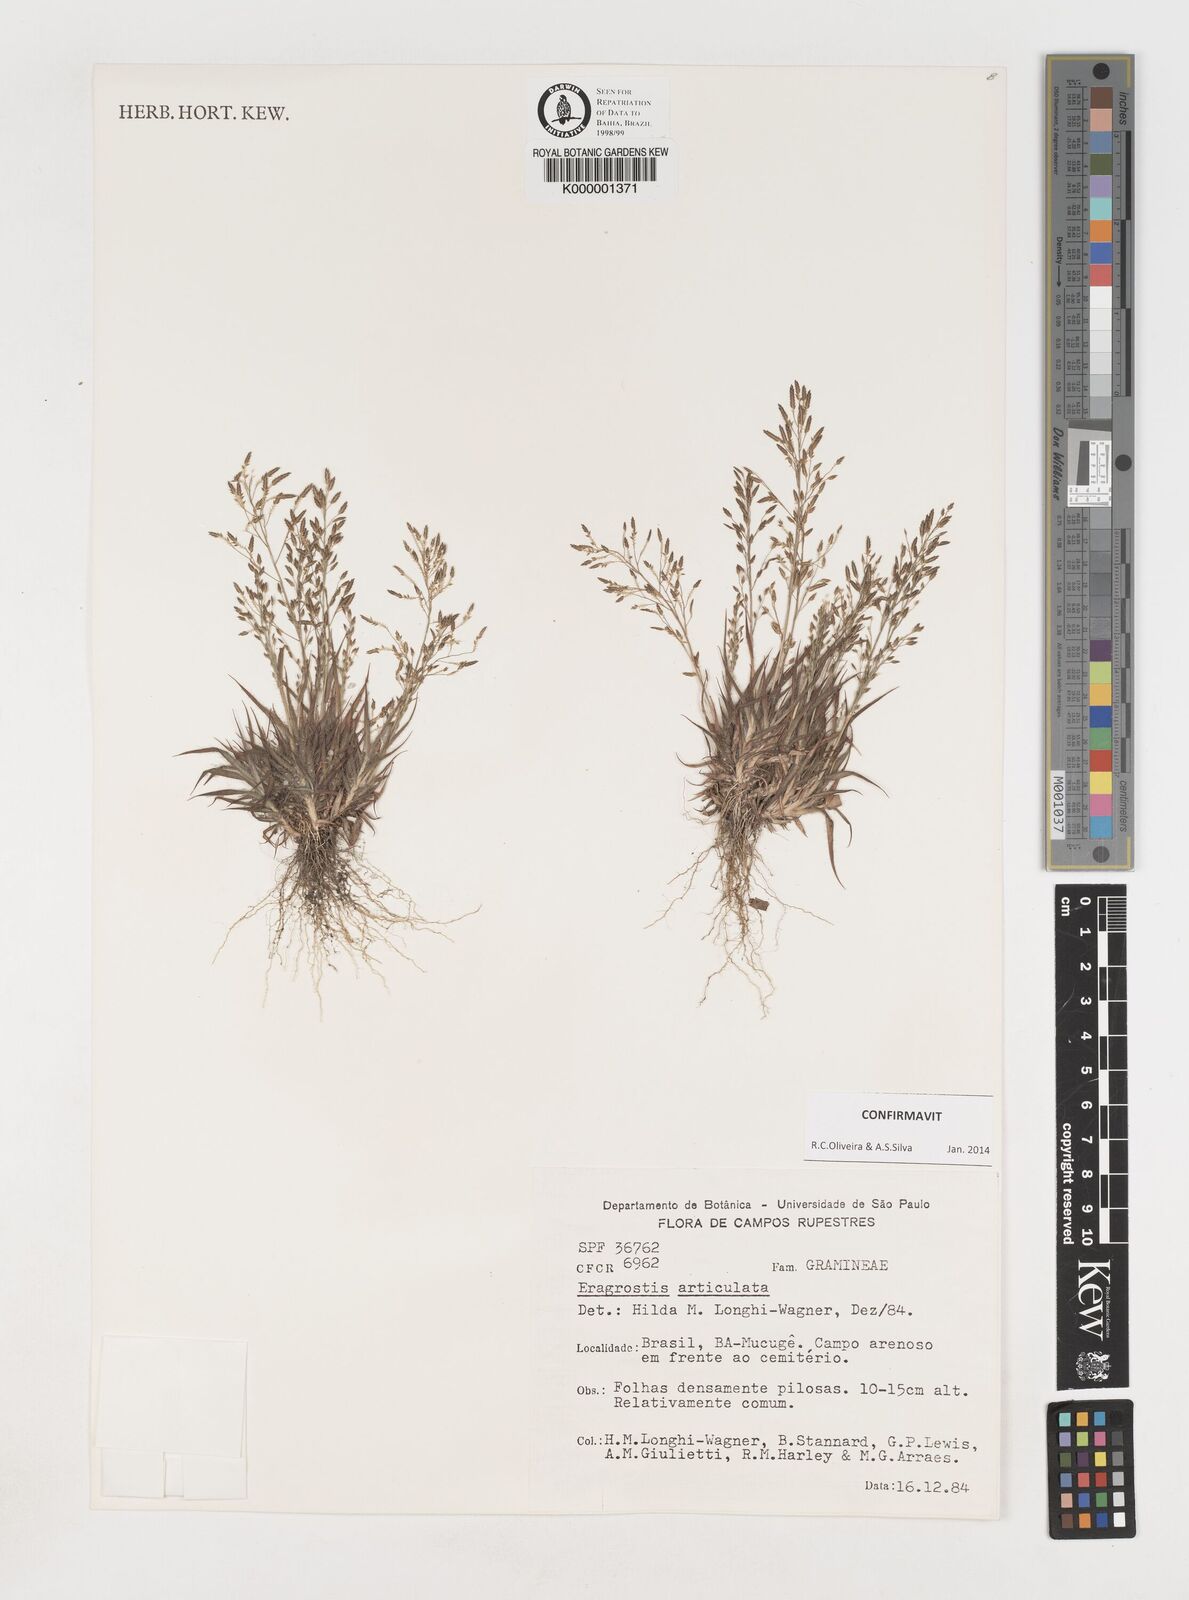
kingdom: Plantae
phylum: Tracheophyta
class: Liliopsida
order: Poales
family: Poaceae
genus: Eragrostis
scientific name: Eragrostis articulata
